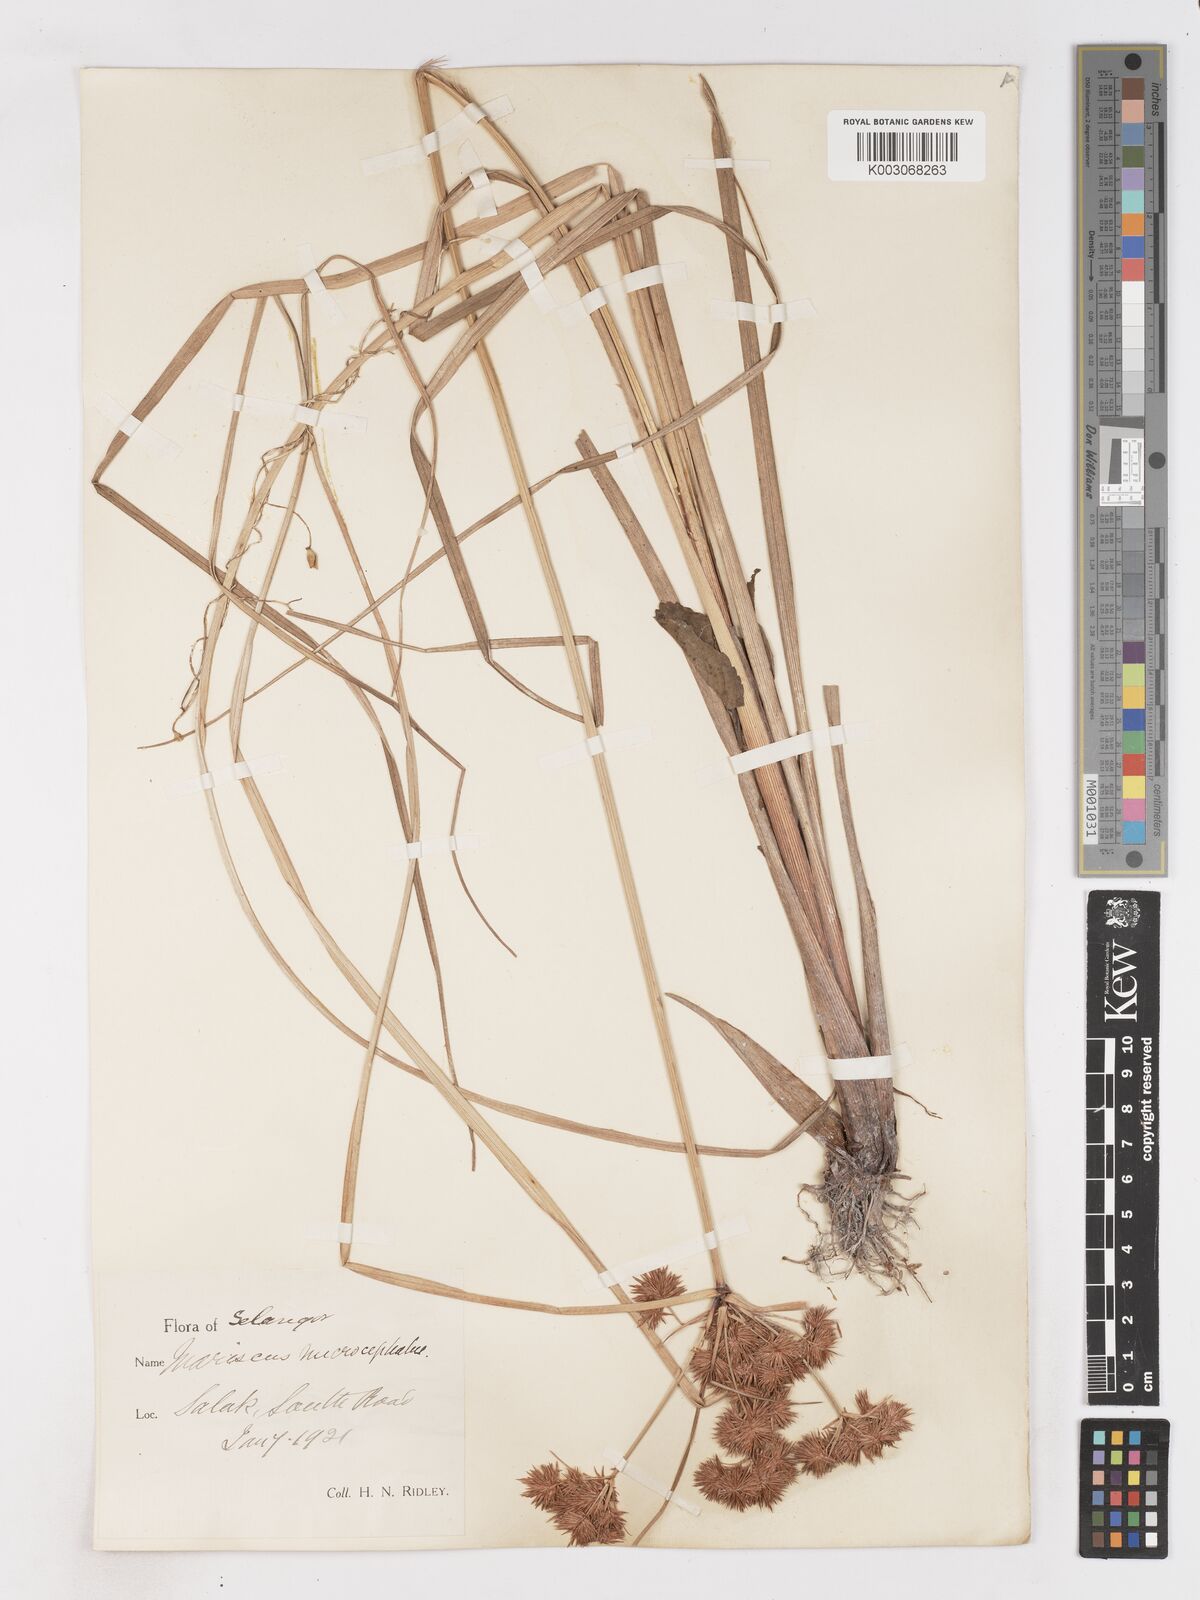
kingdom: Plantae
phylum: Tracheophyta
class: Liliopsida
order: Poales
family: Cyperaceae
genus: Cyperus
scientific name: Cyperus compactus
